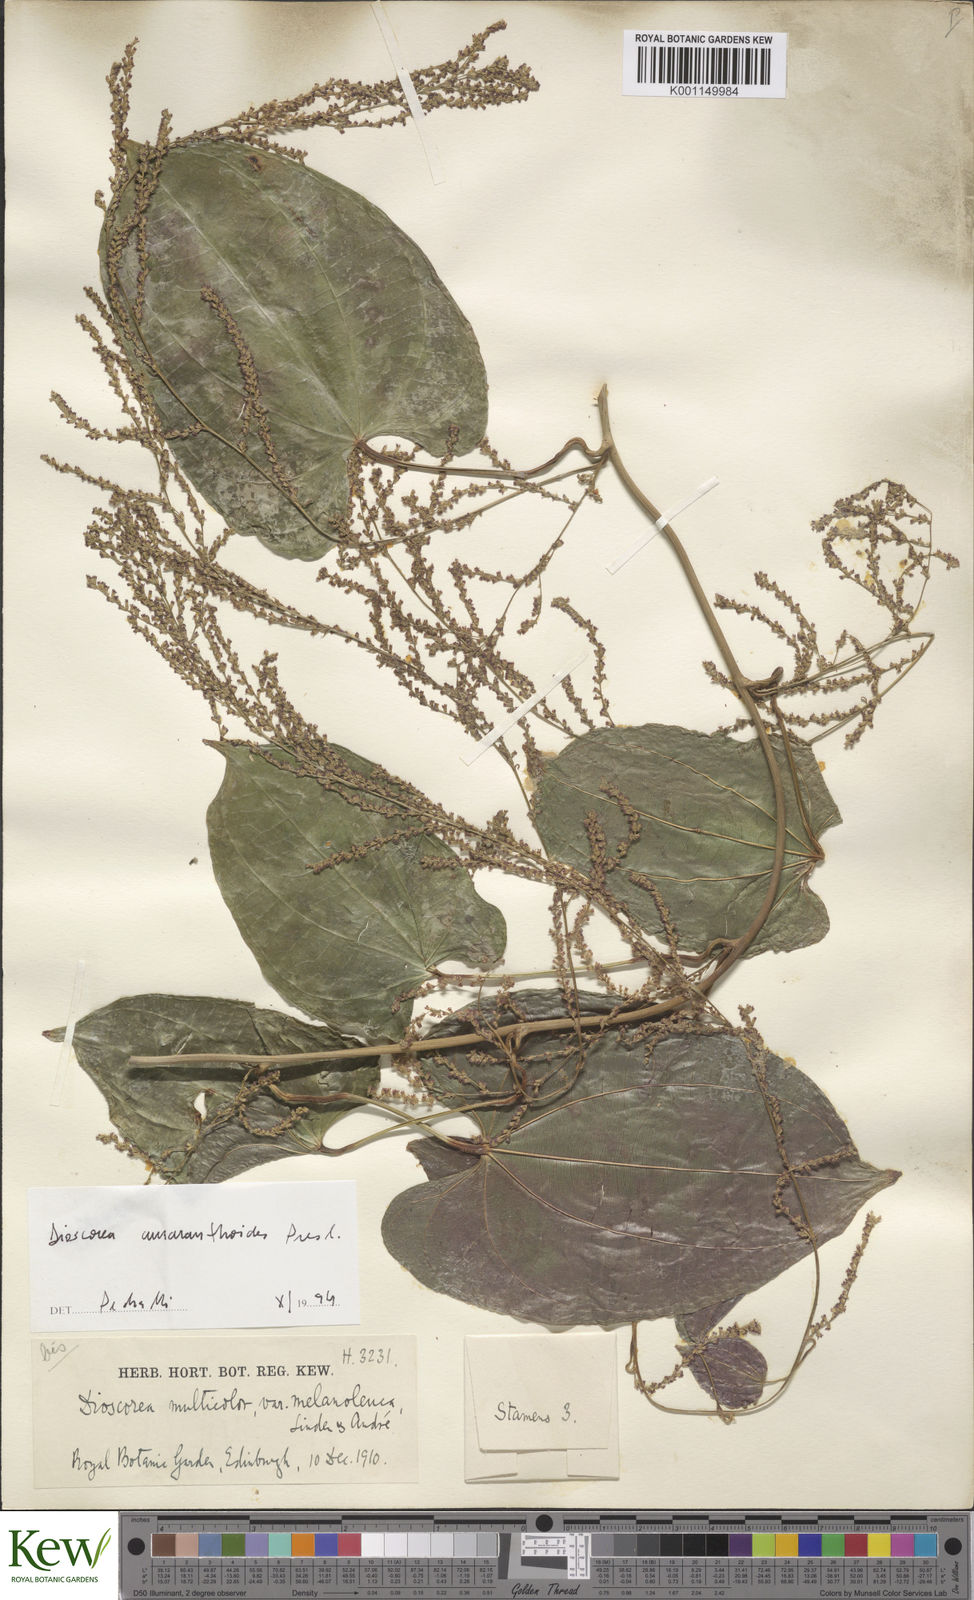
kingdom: Plantae
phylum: Tracheophyta
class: Liliopsida
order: Dioscoreales
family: Dioscoreaceae
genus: Dioscorea
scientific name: Dioscorea amaranthoides
